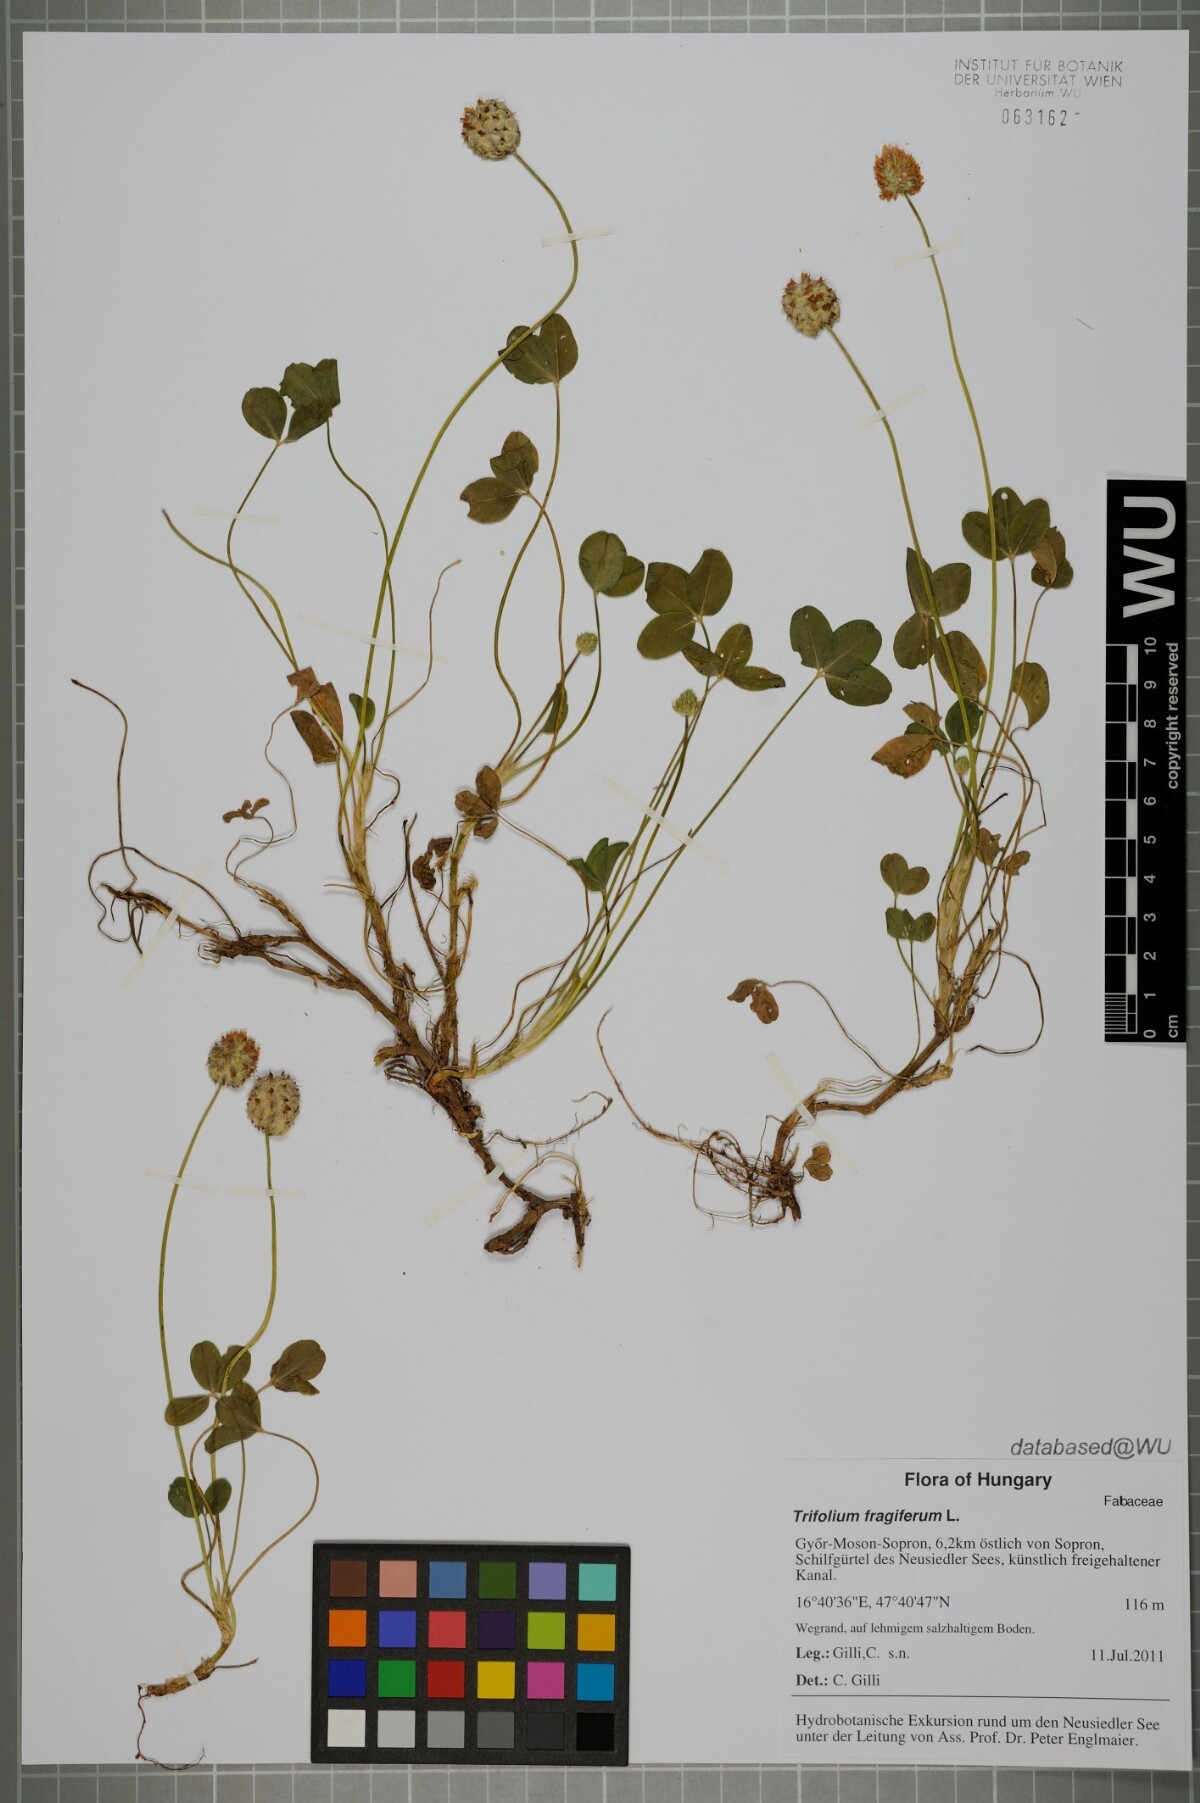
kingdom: Plantae
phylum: Tracheophyta
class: Magnoliopsida
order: Fabales
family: Fabaceae
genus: Trifolium
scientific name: Trifolium fragiferum
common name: Strawberry clover
